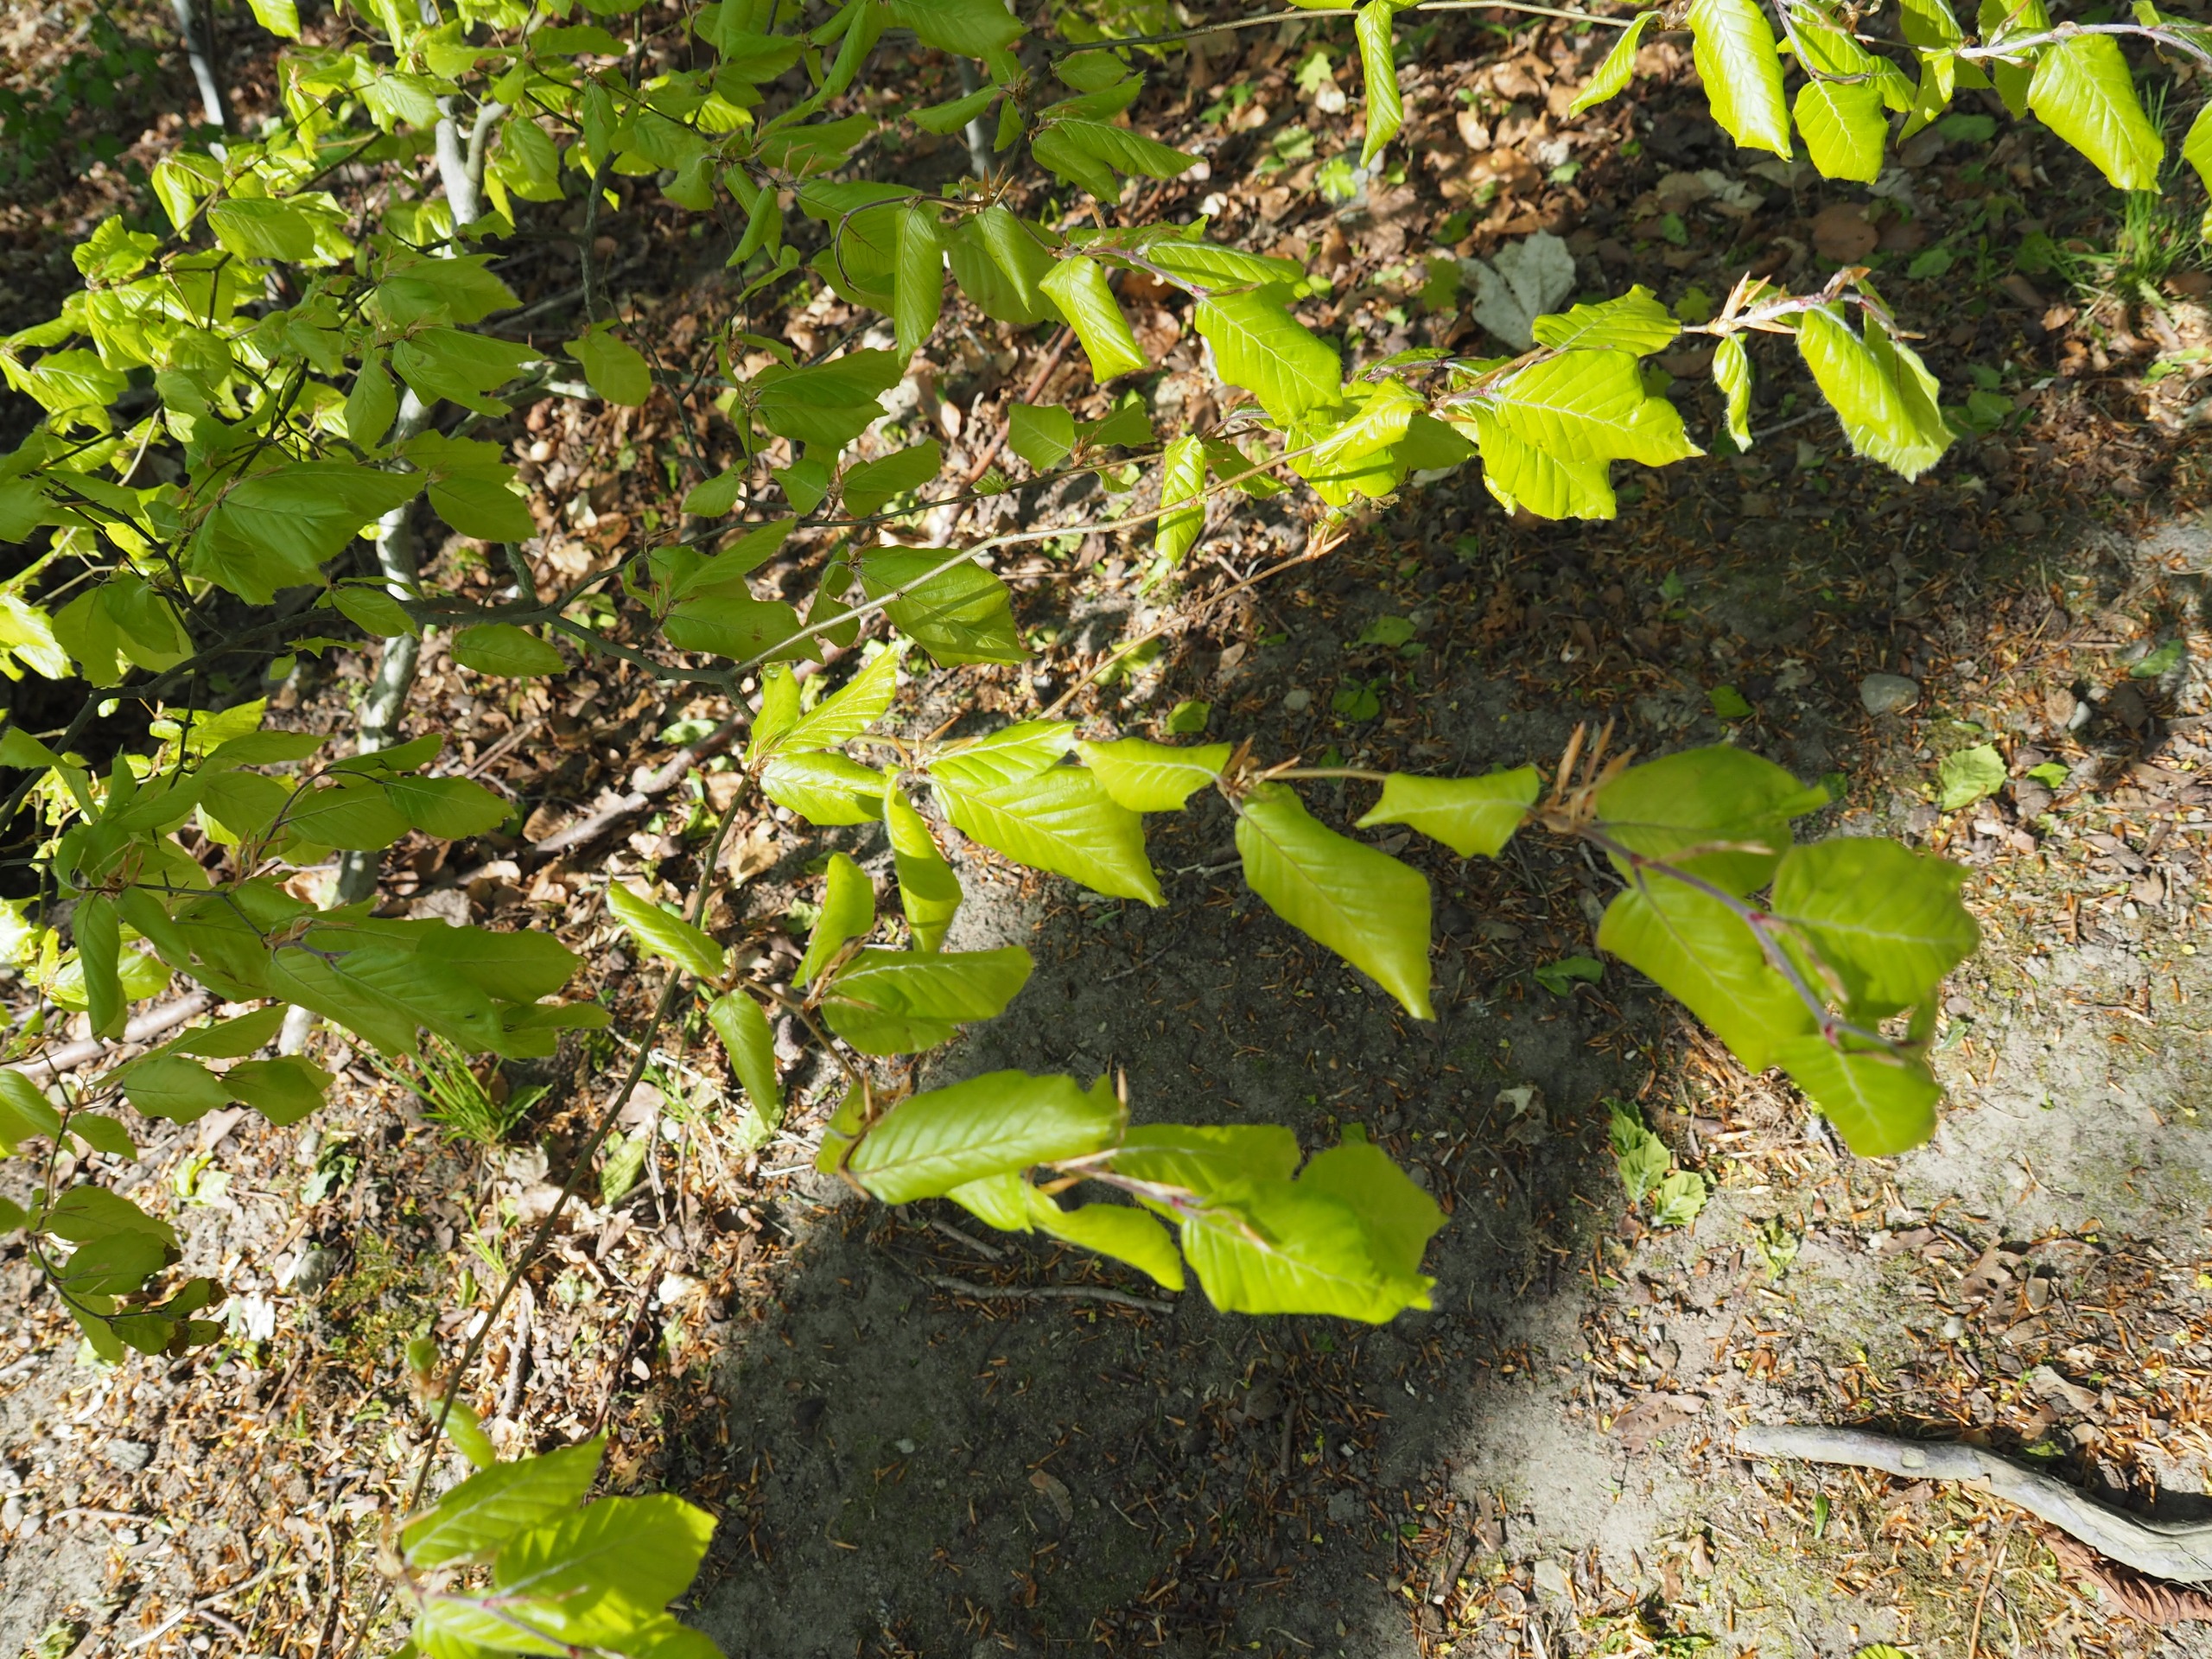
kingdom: Plantae
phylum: Tracheophyta
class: Magnoliopsida
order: Fagales
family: Fagaceae
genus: Fagus
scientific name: Fagus sylvatica
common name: Bøg
